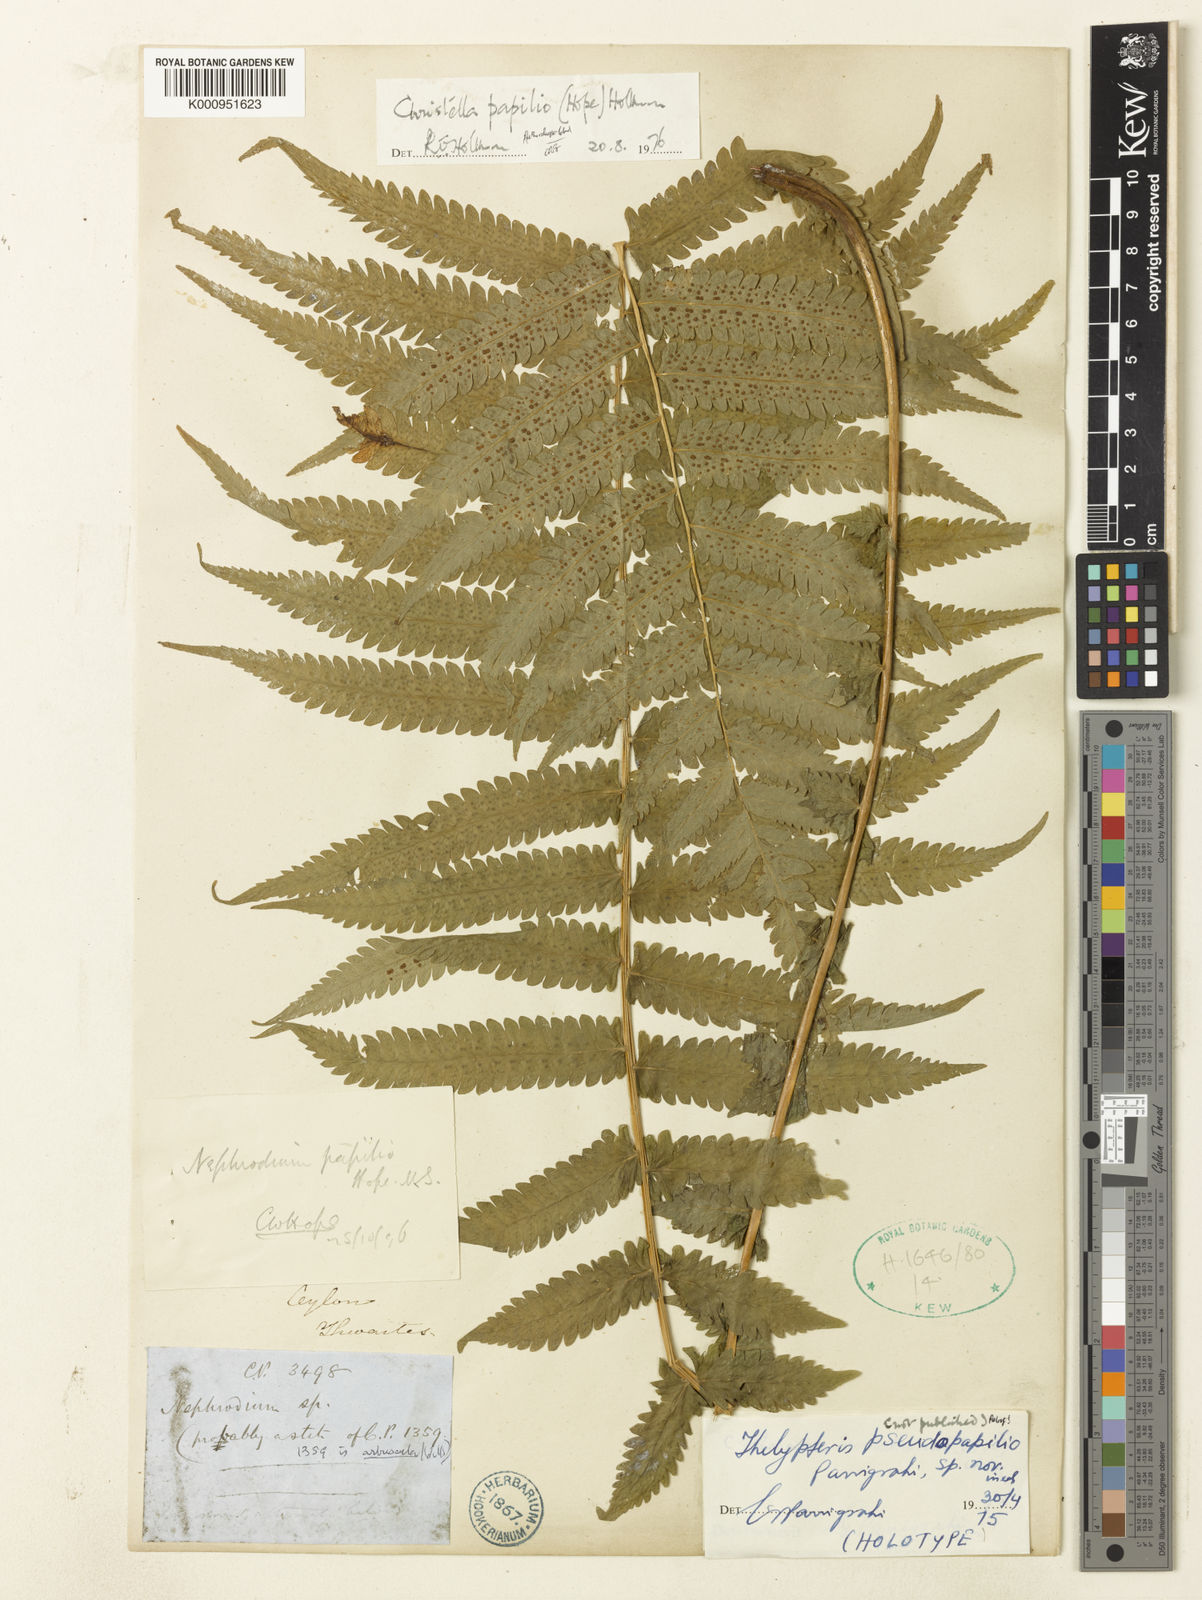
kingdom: Plantae
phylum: Tracheophyta
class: Polypodiopsida
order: Polypodiales
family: Thelypteridaceae
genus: Christella
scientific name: Christella
